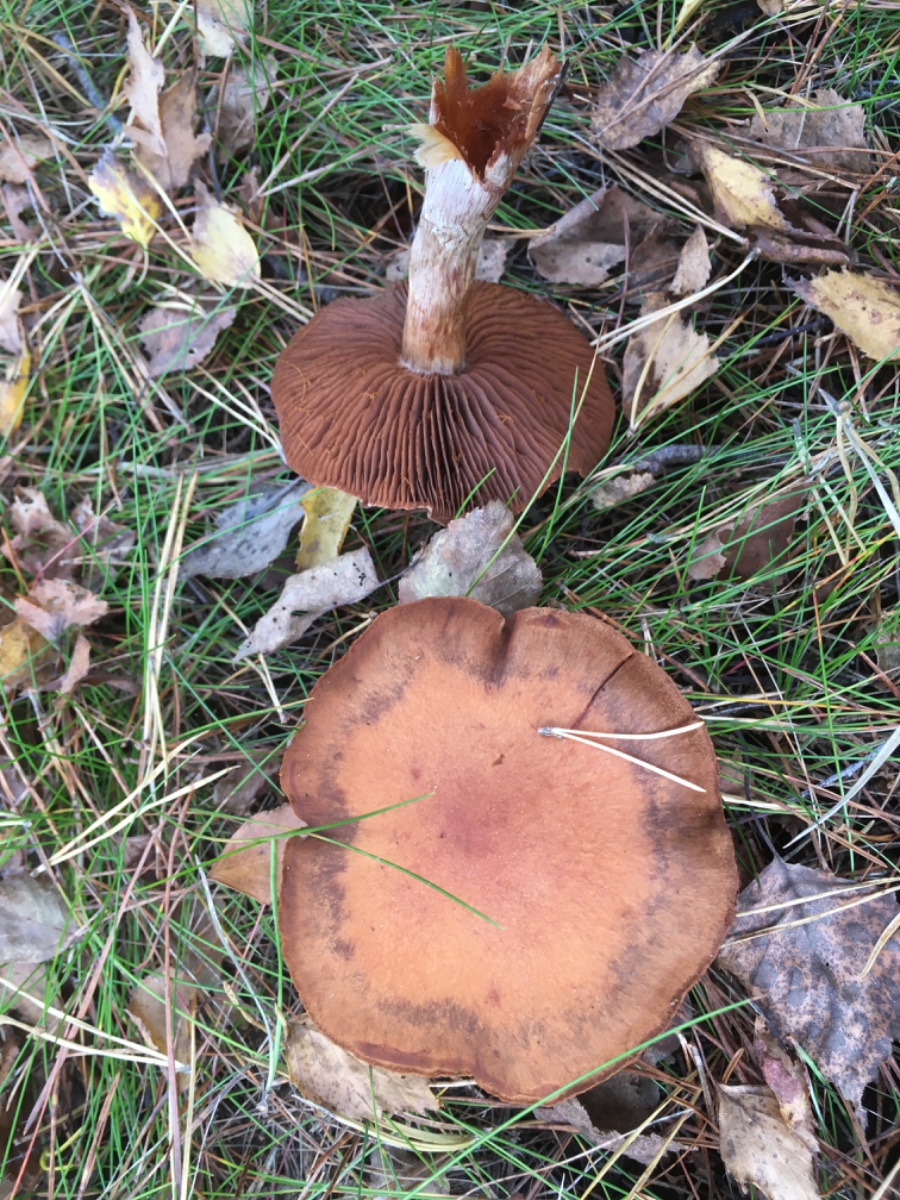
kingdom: Fungi
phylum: Basidiomycota
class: Agaricomycetes
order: Agaricales
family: Cortinariaceae
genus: Cortinarius
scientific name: Cortinarius
